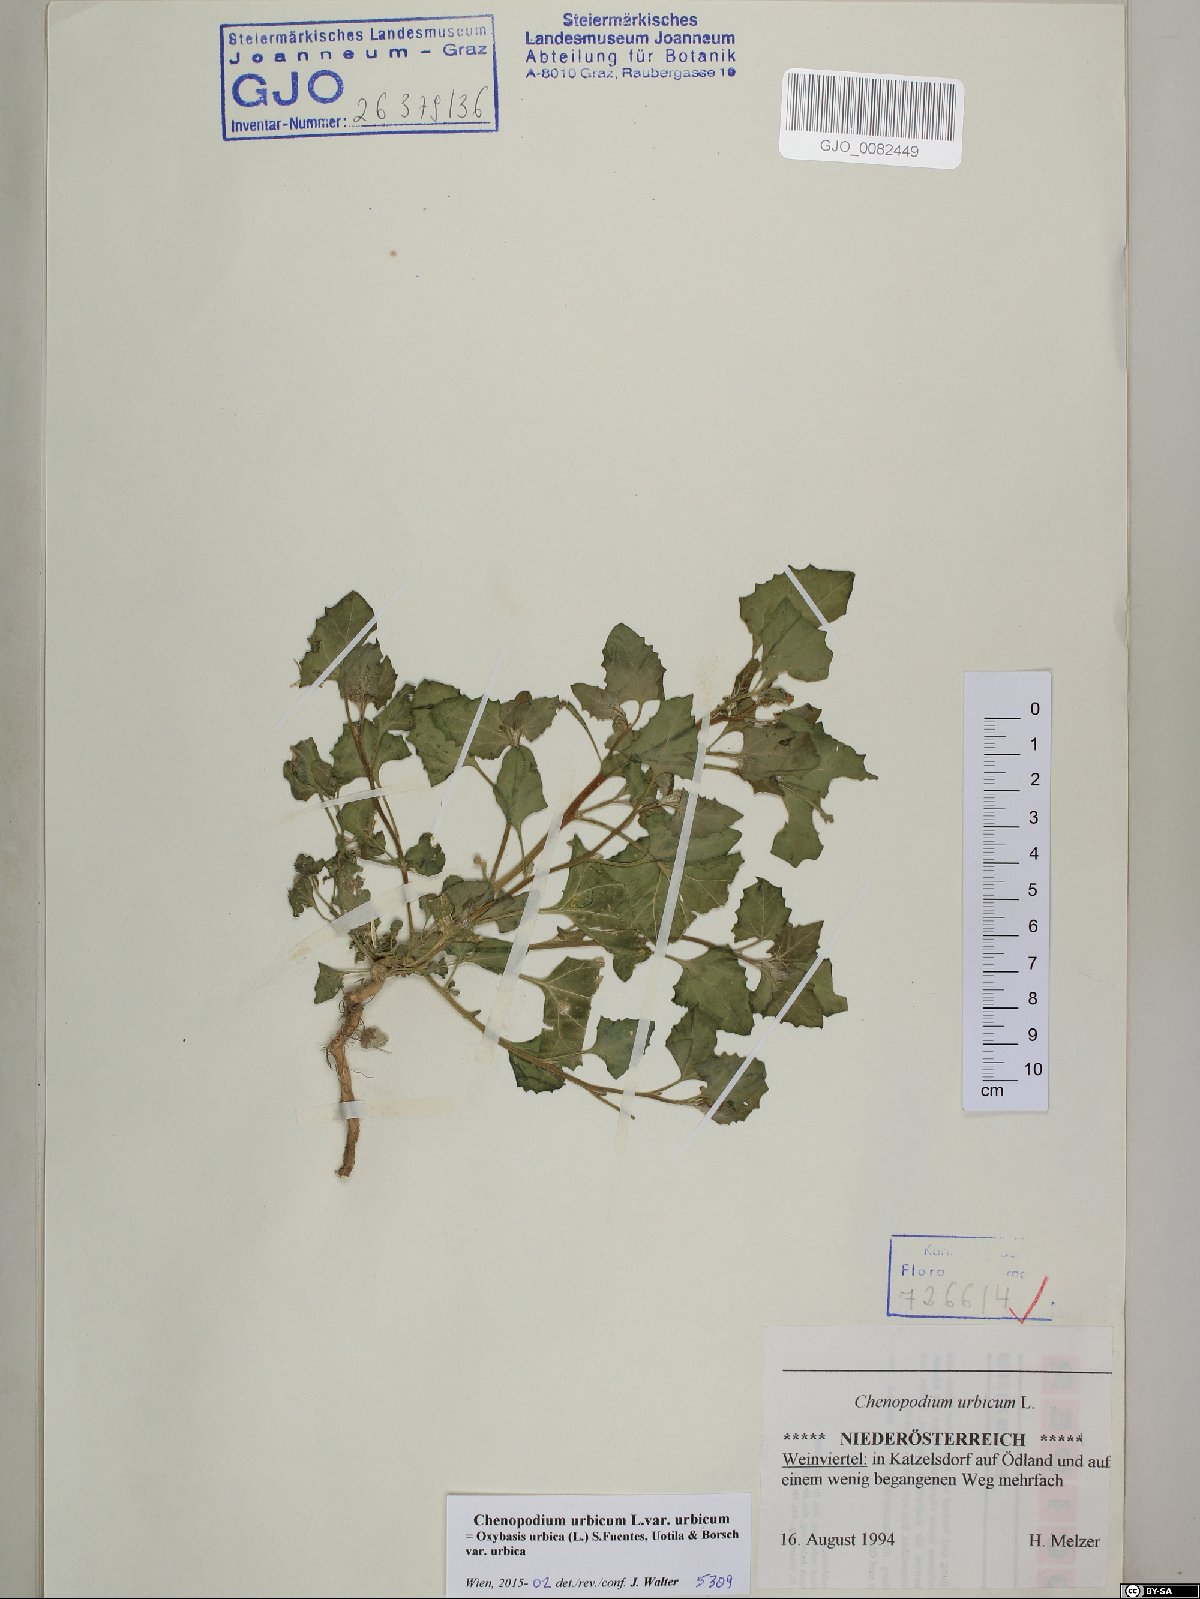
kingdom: Plantae
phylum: Tracheophyta
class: Magnoliopsida
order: Caryophyllales
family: Amaranthaceae
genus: Oxybasis
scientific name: Oxybasis urbica
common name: City goosefoot
